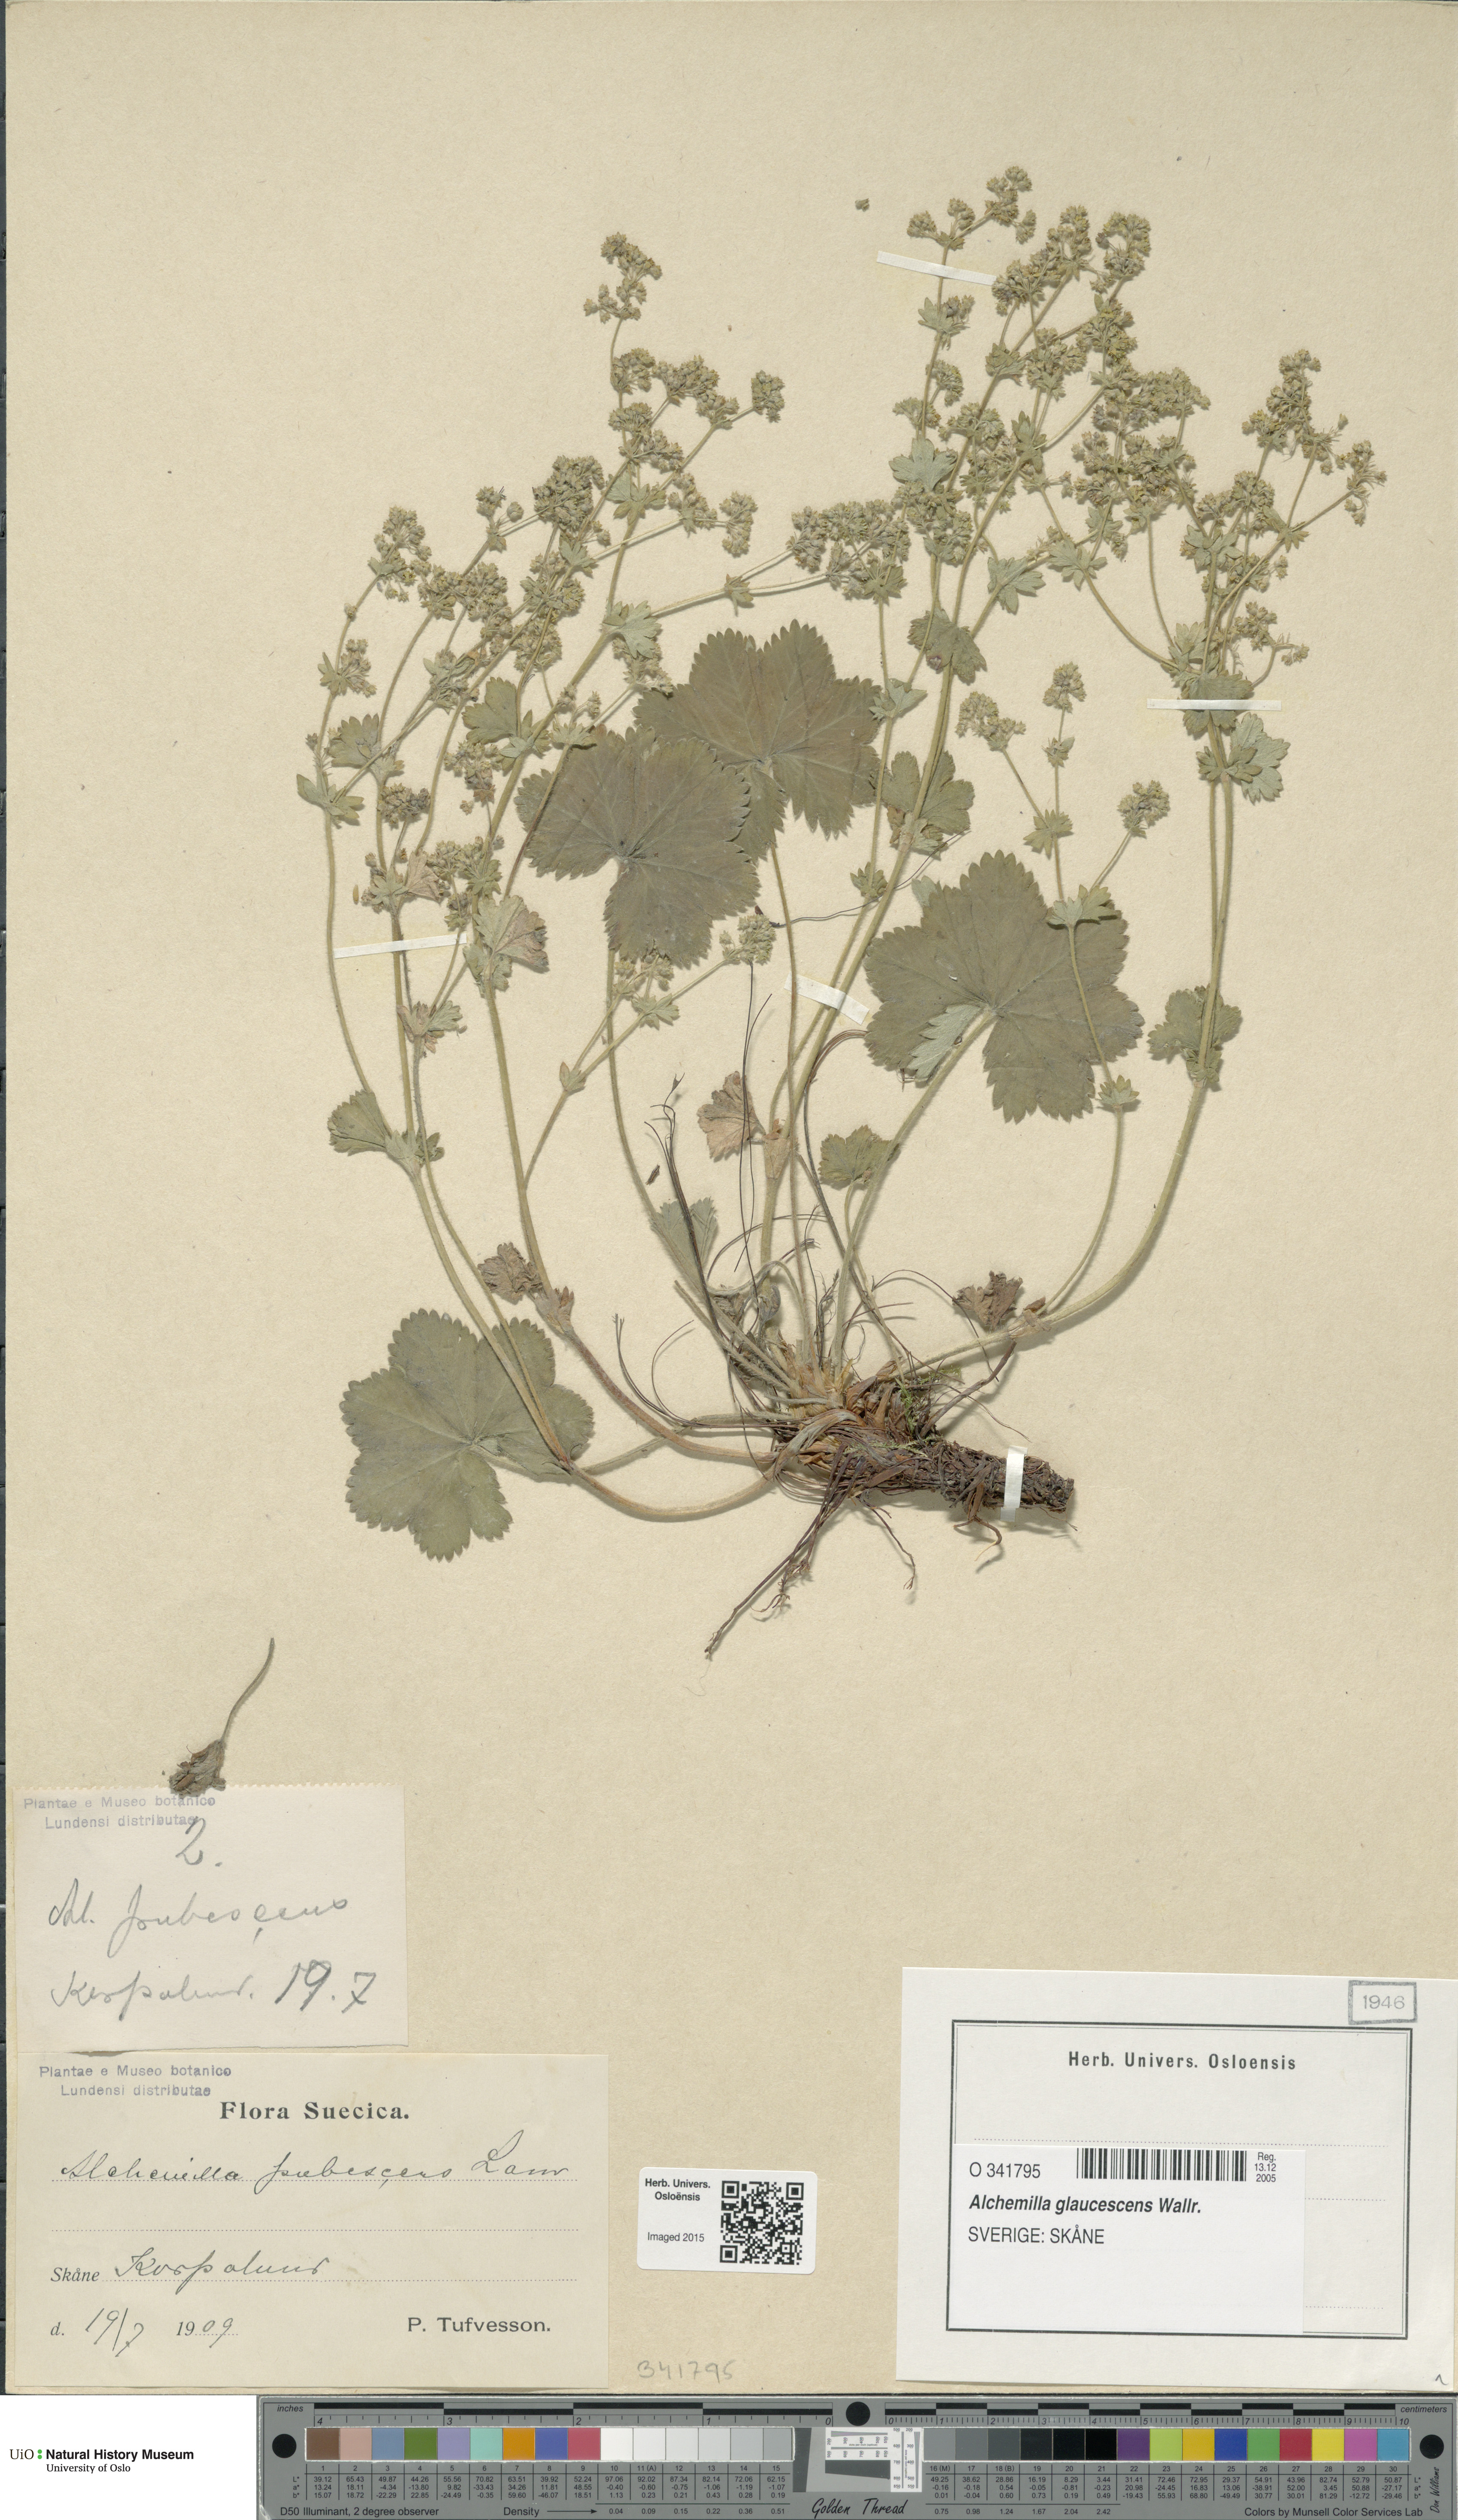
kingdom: Plantae
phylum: Tracheophyta
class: Magnoliopsida
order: Rosales
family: Rosaceae
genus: Alchemilla
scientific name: Alchemilla glaucescens
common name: Silky lady's mantle
